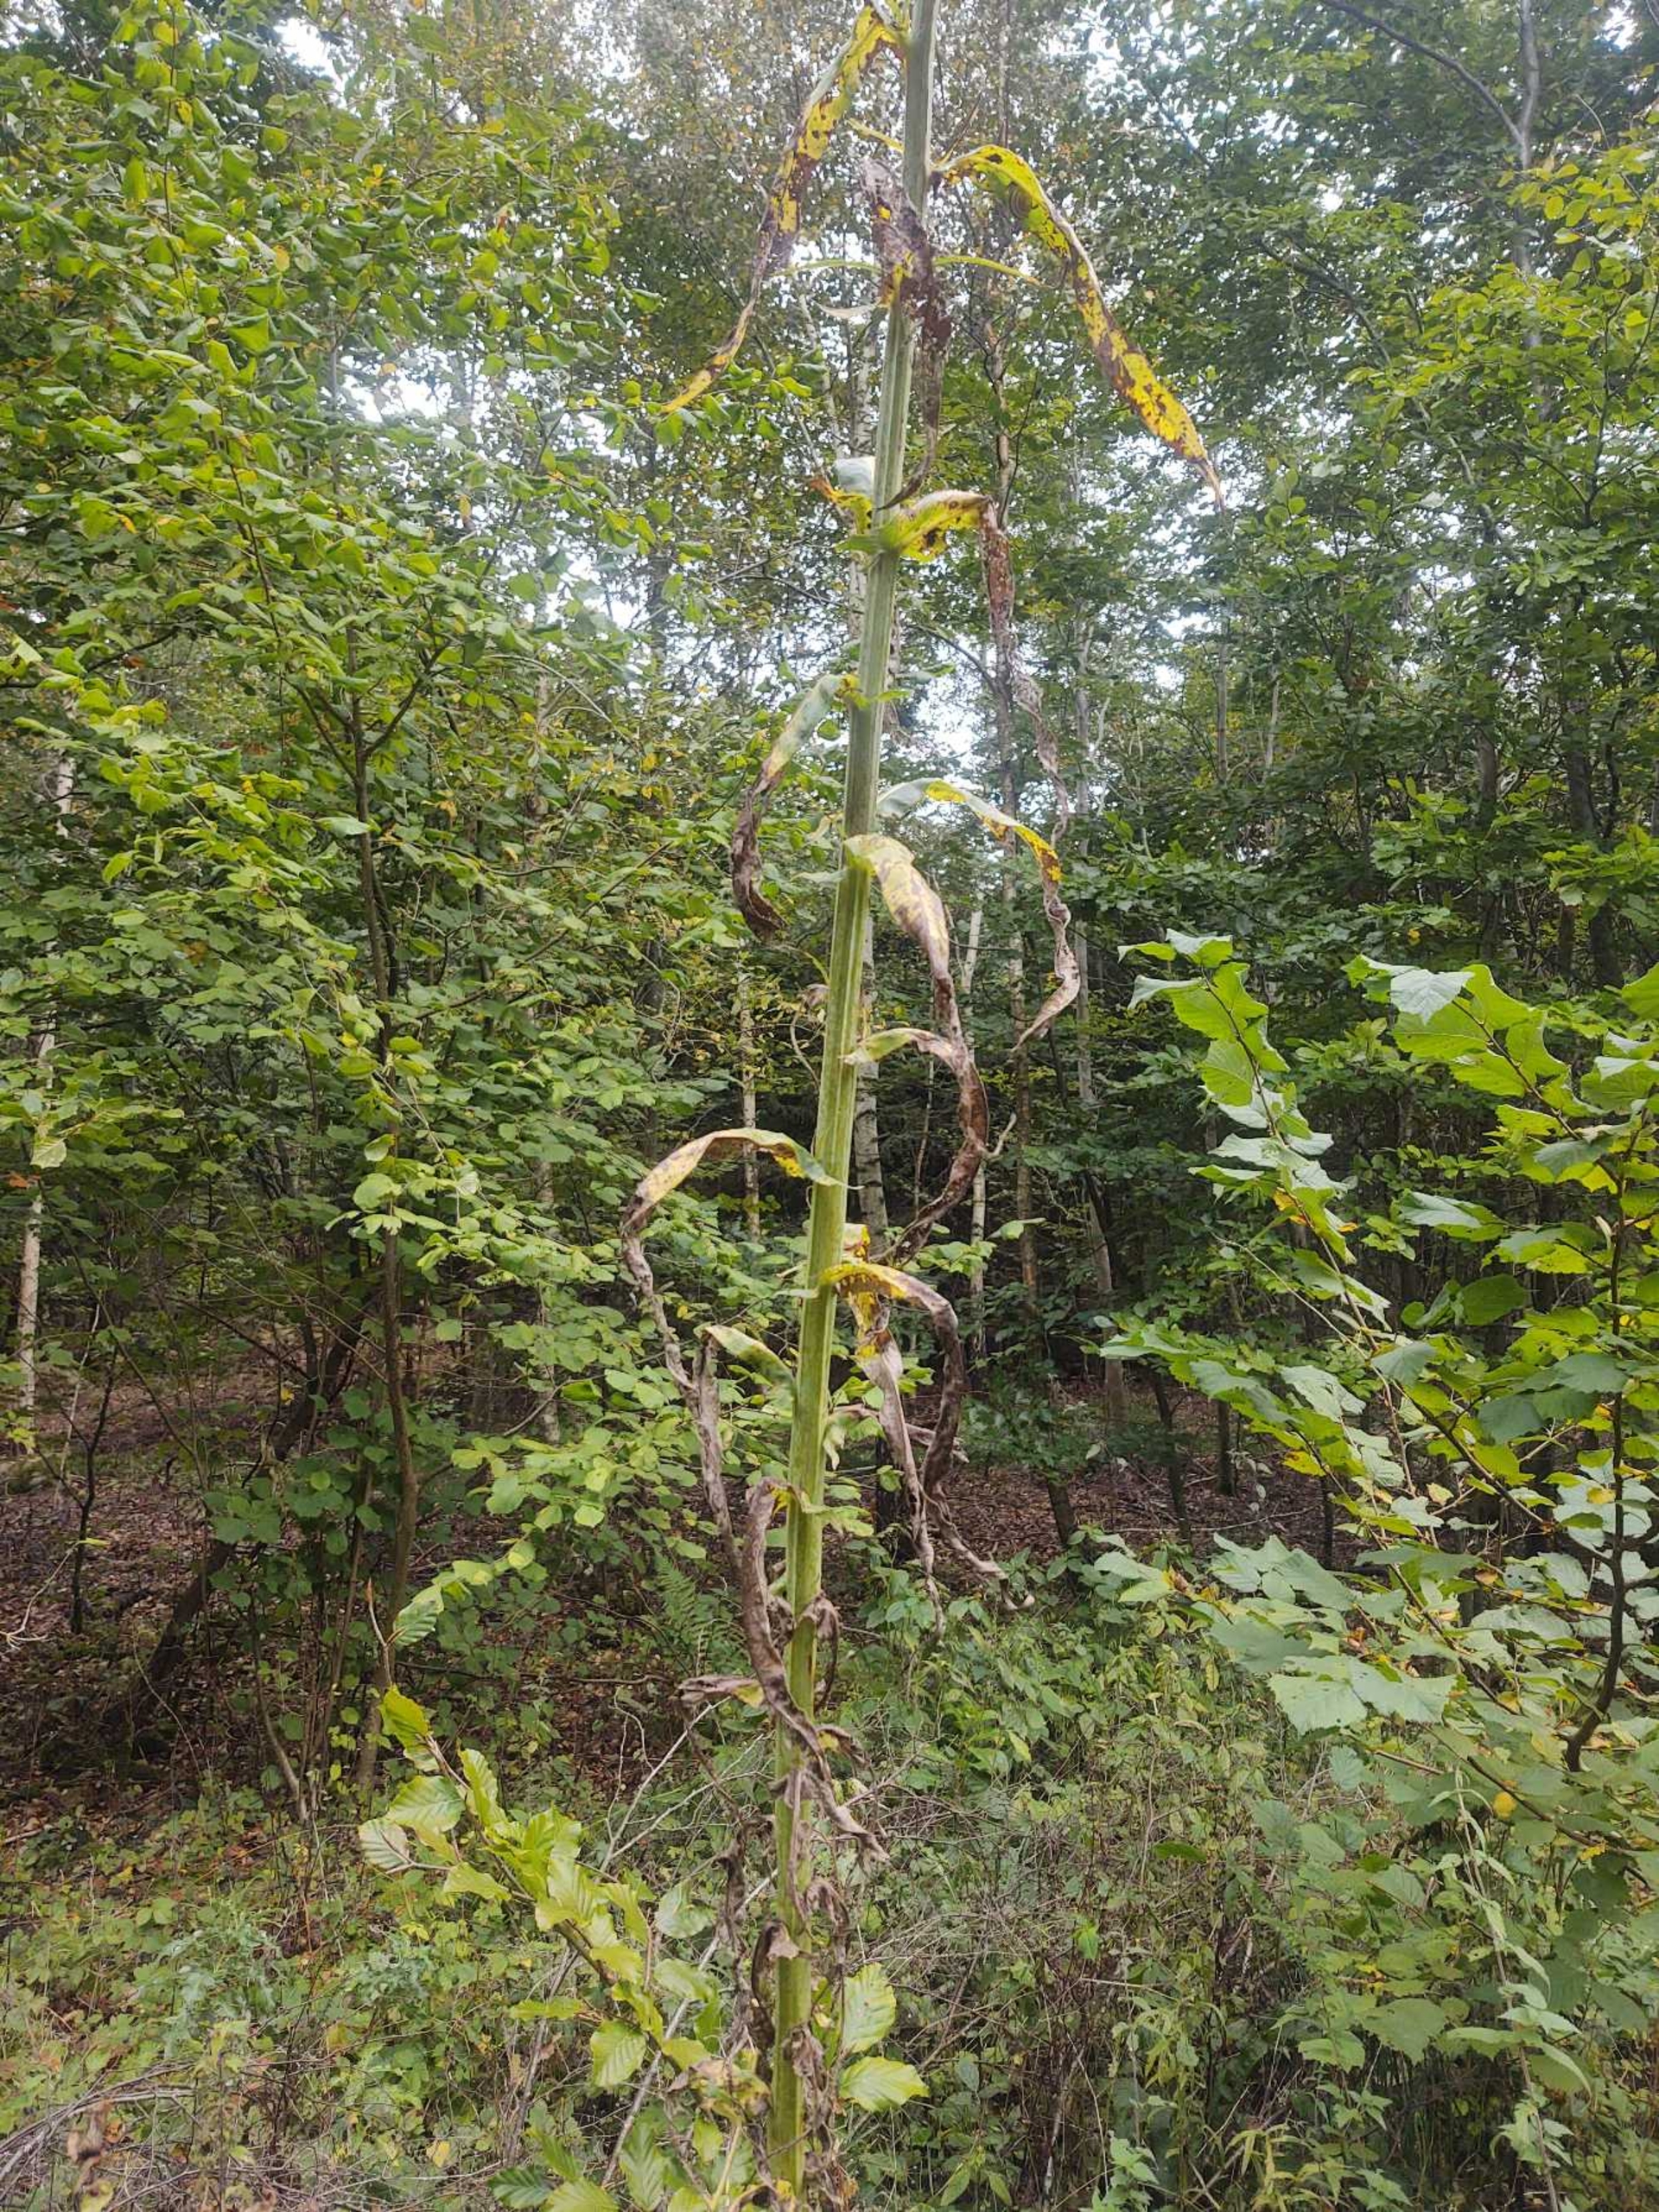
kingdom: Plantae
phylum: Tracheophyta
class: Magnoliopsida
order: Asterales
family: Asteraceae
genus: Sonchus
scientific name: Sonchus palustris
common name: Kær-svinemælk
